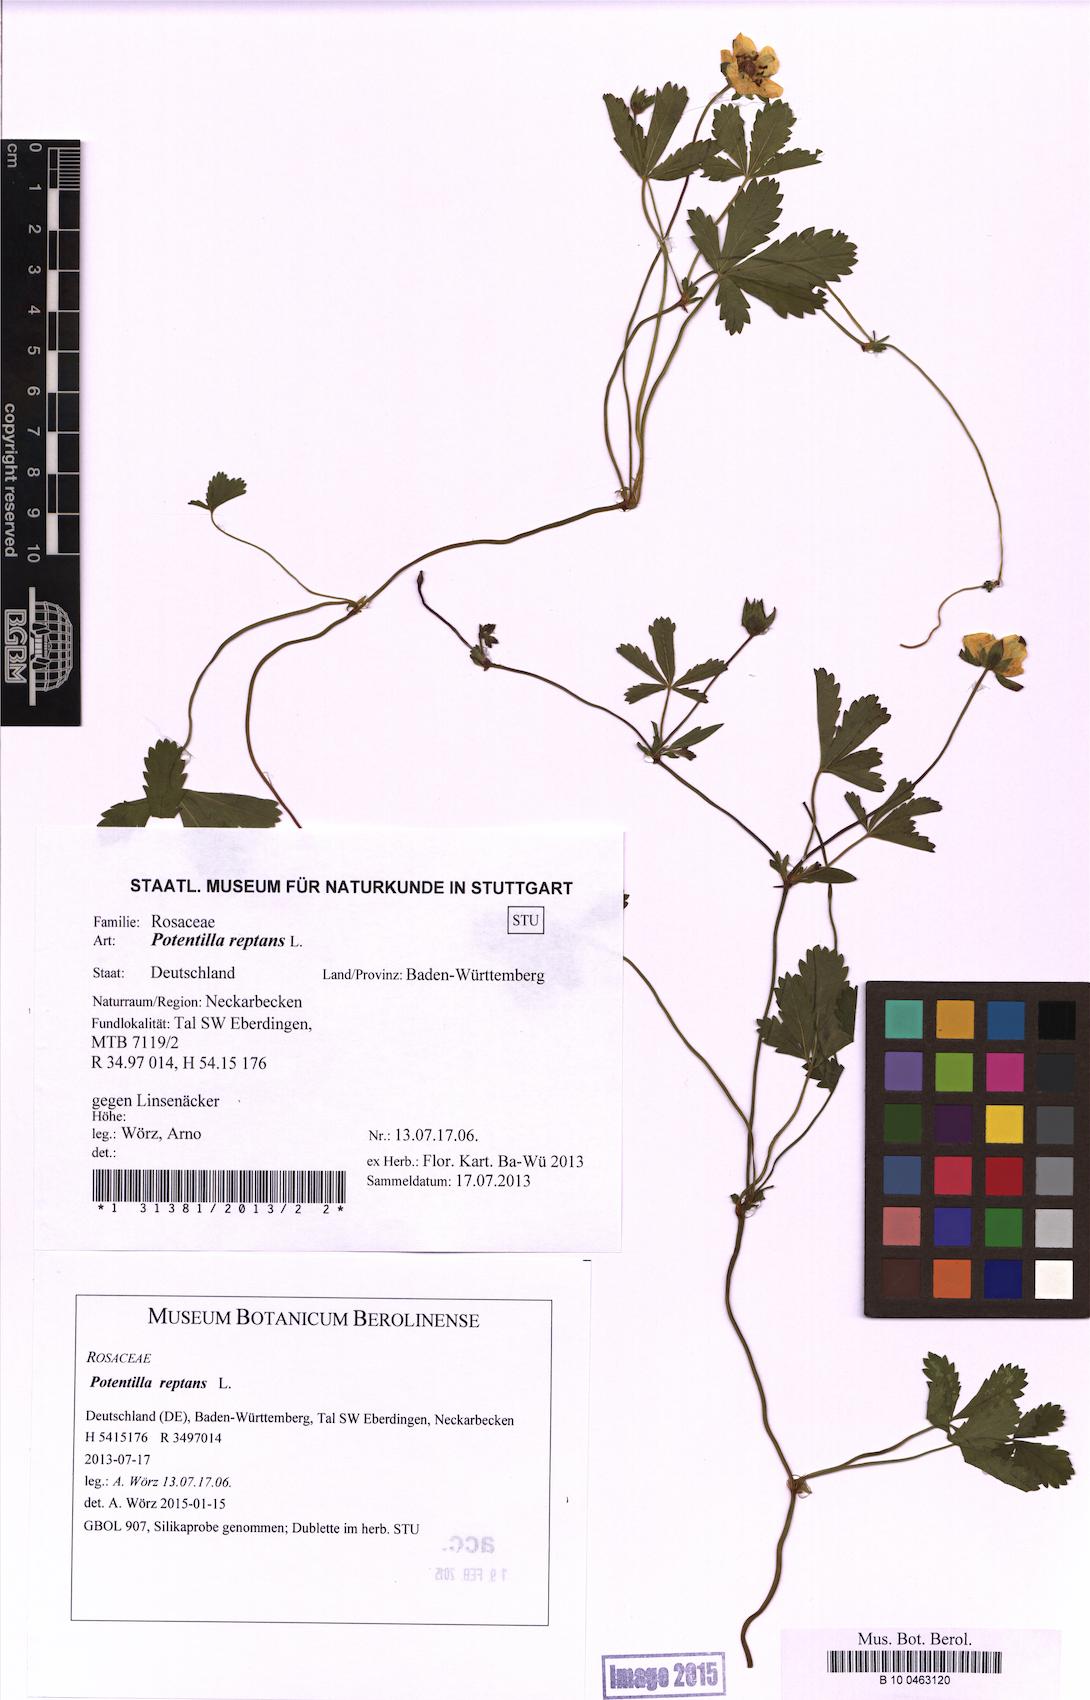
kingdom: Plantae
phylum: Tracheophyta
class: Magnoliopsida
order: Rosales
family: Rosaceae
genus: Potentilla
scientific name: Potentilla reptans
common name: Creeping cinquefoil
